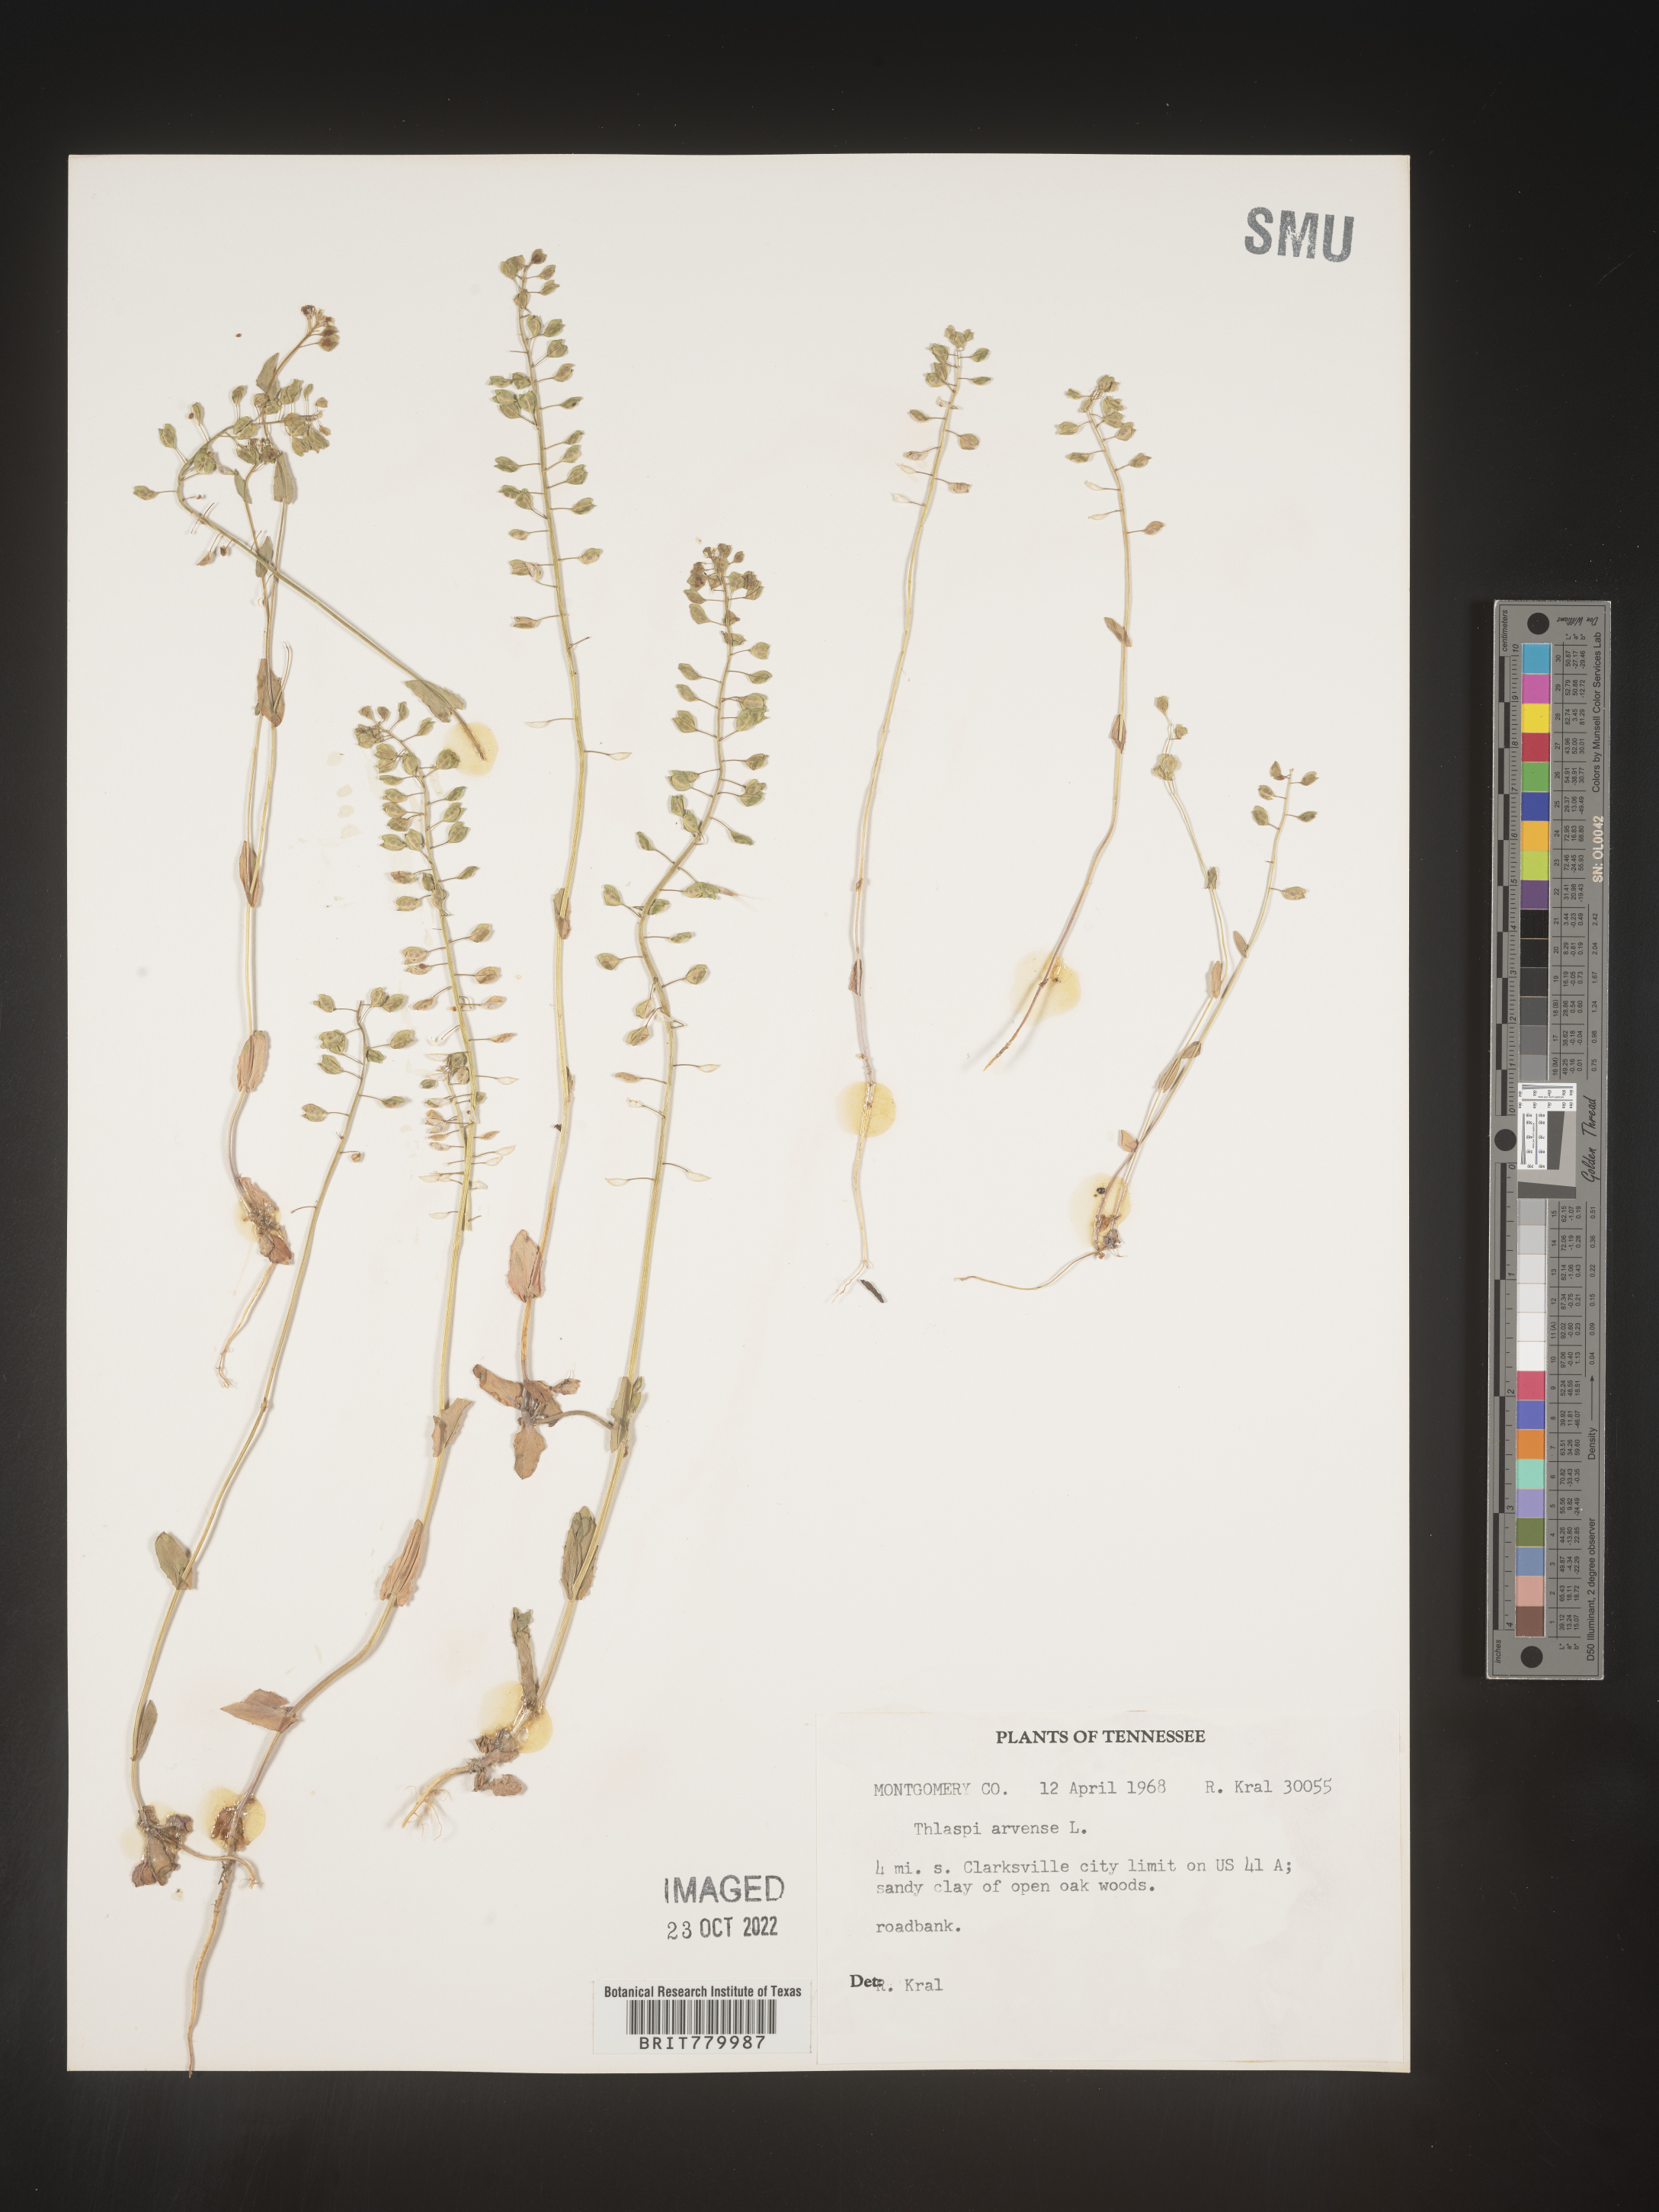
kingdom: Plantae
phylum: Tracheophyta
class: Magnoliopsida
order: Brassicales
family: Brassicaceae
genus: Thlaspi
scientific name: Thlaspi arvense
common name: Field pennycress
